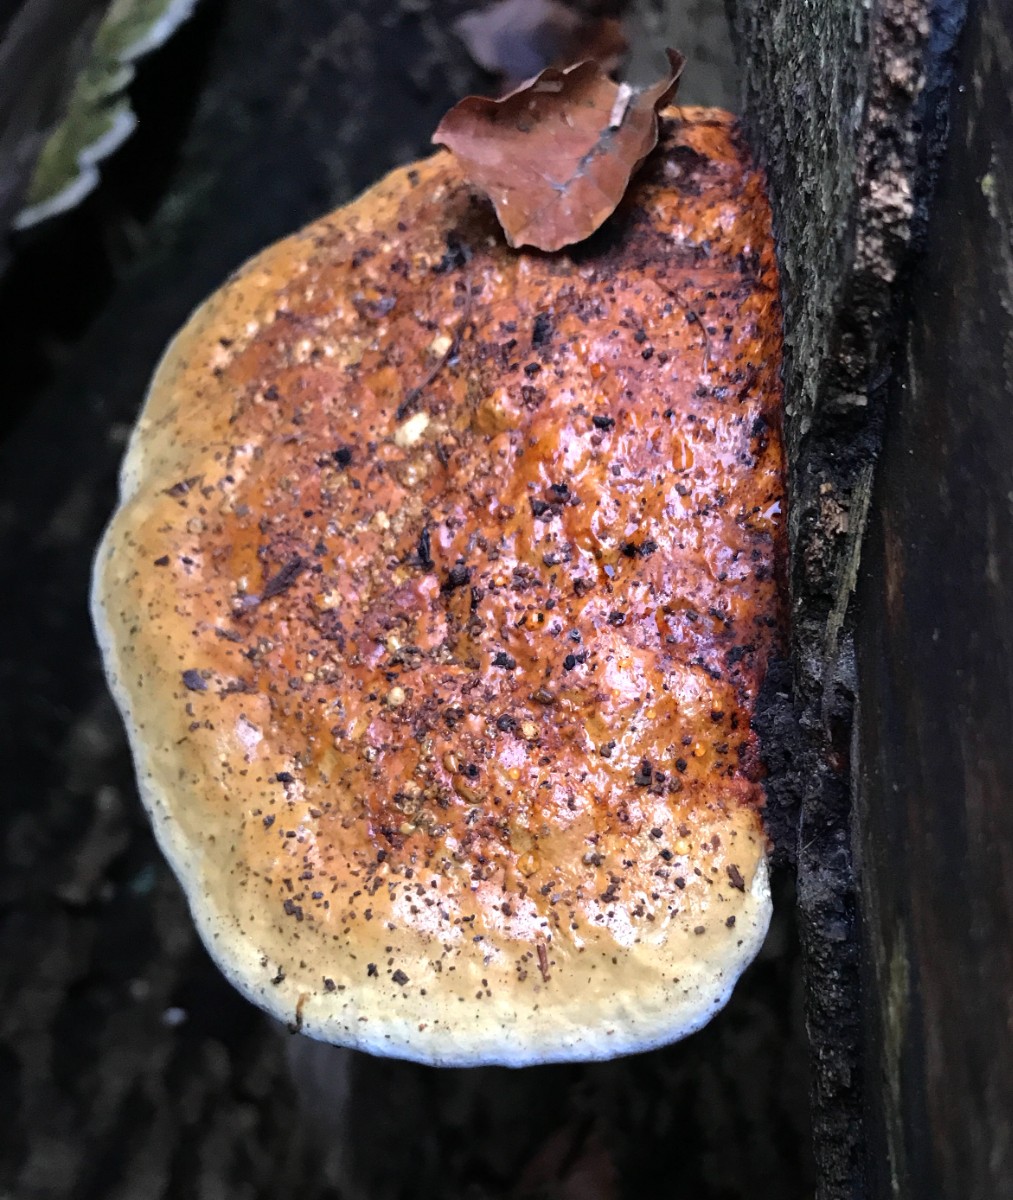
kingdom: Fungi
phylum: Basidiomycota
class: Agaricomycetes
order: Polyporales
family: Fomitopsidaceae
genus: Fomitopsis
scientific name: Fomitopsis pinicola
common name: randbæltet hovporesvamp
